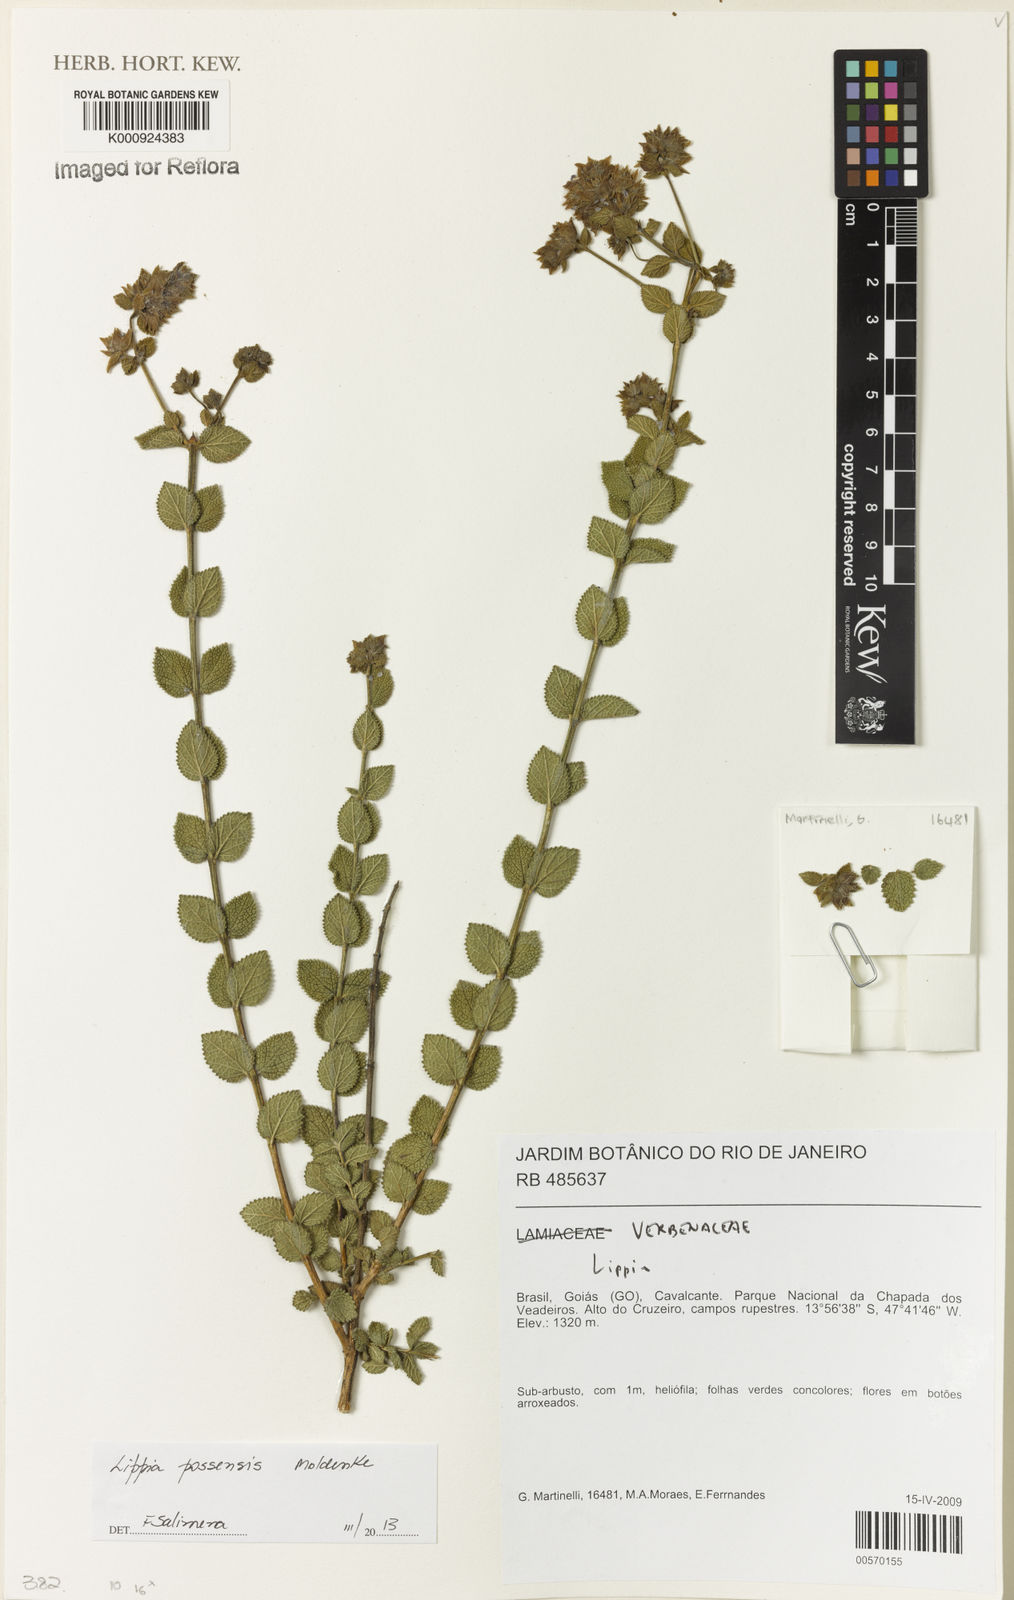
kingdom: Plantae
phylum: Tracheophyta
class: Magnoliopsida
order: Lamiales
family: Verbenaceae
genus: Lippia
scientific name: Lippia possensis
